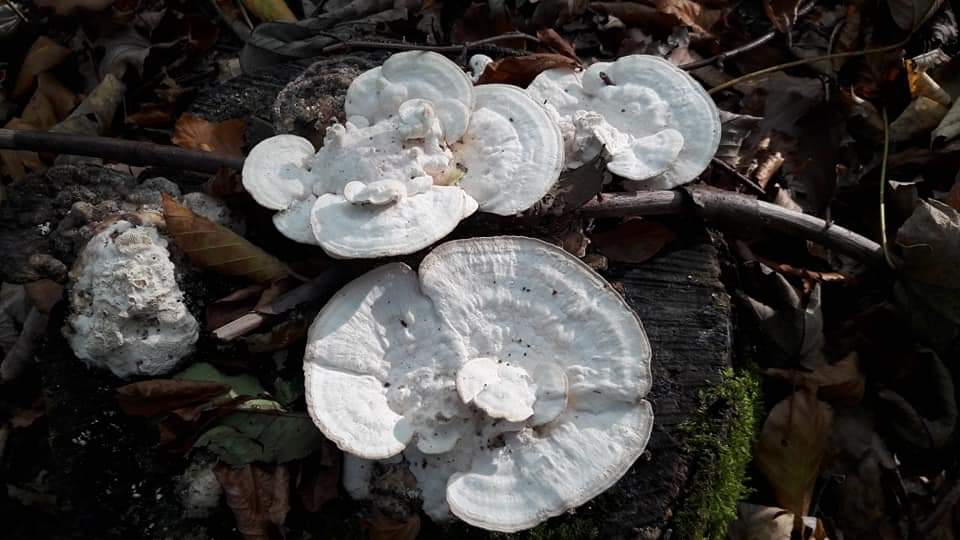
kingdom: Fungi
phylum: Basidiomycota
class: Agaricomycetes
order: Polyporales
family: Polyporaceae
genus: Trametes
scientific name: Trametes gibbosa
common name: puklet læderporesvamp
